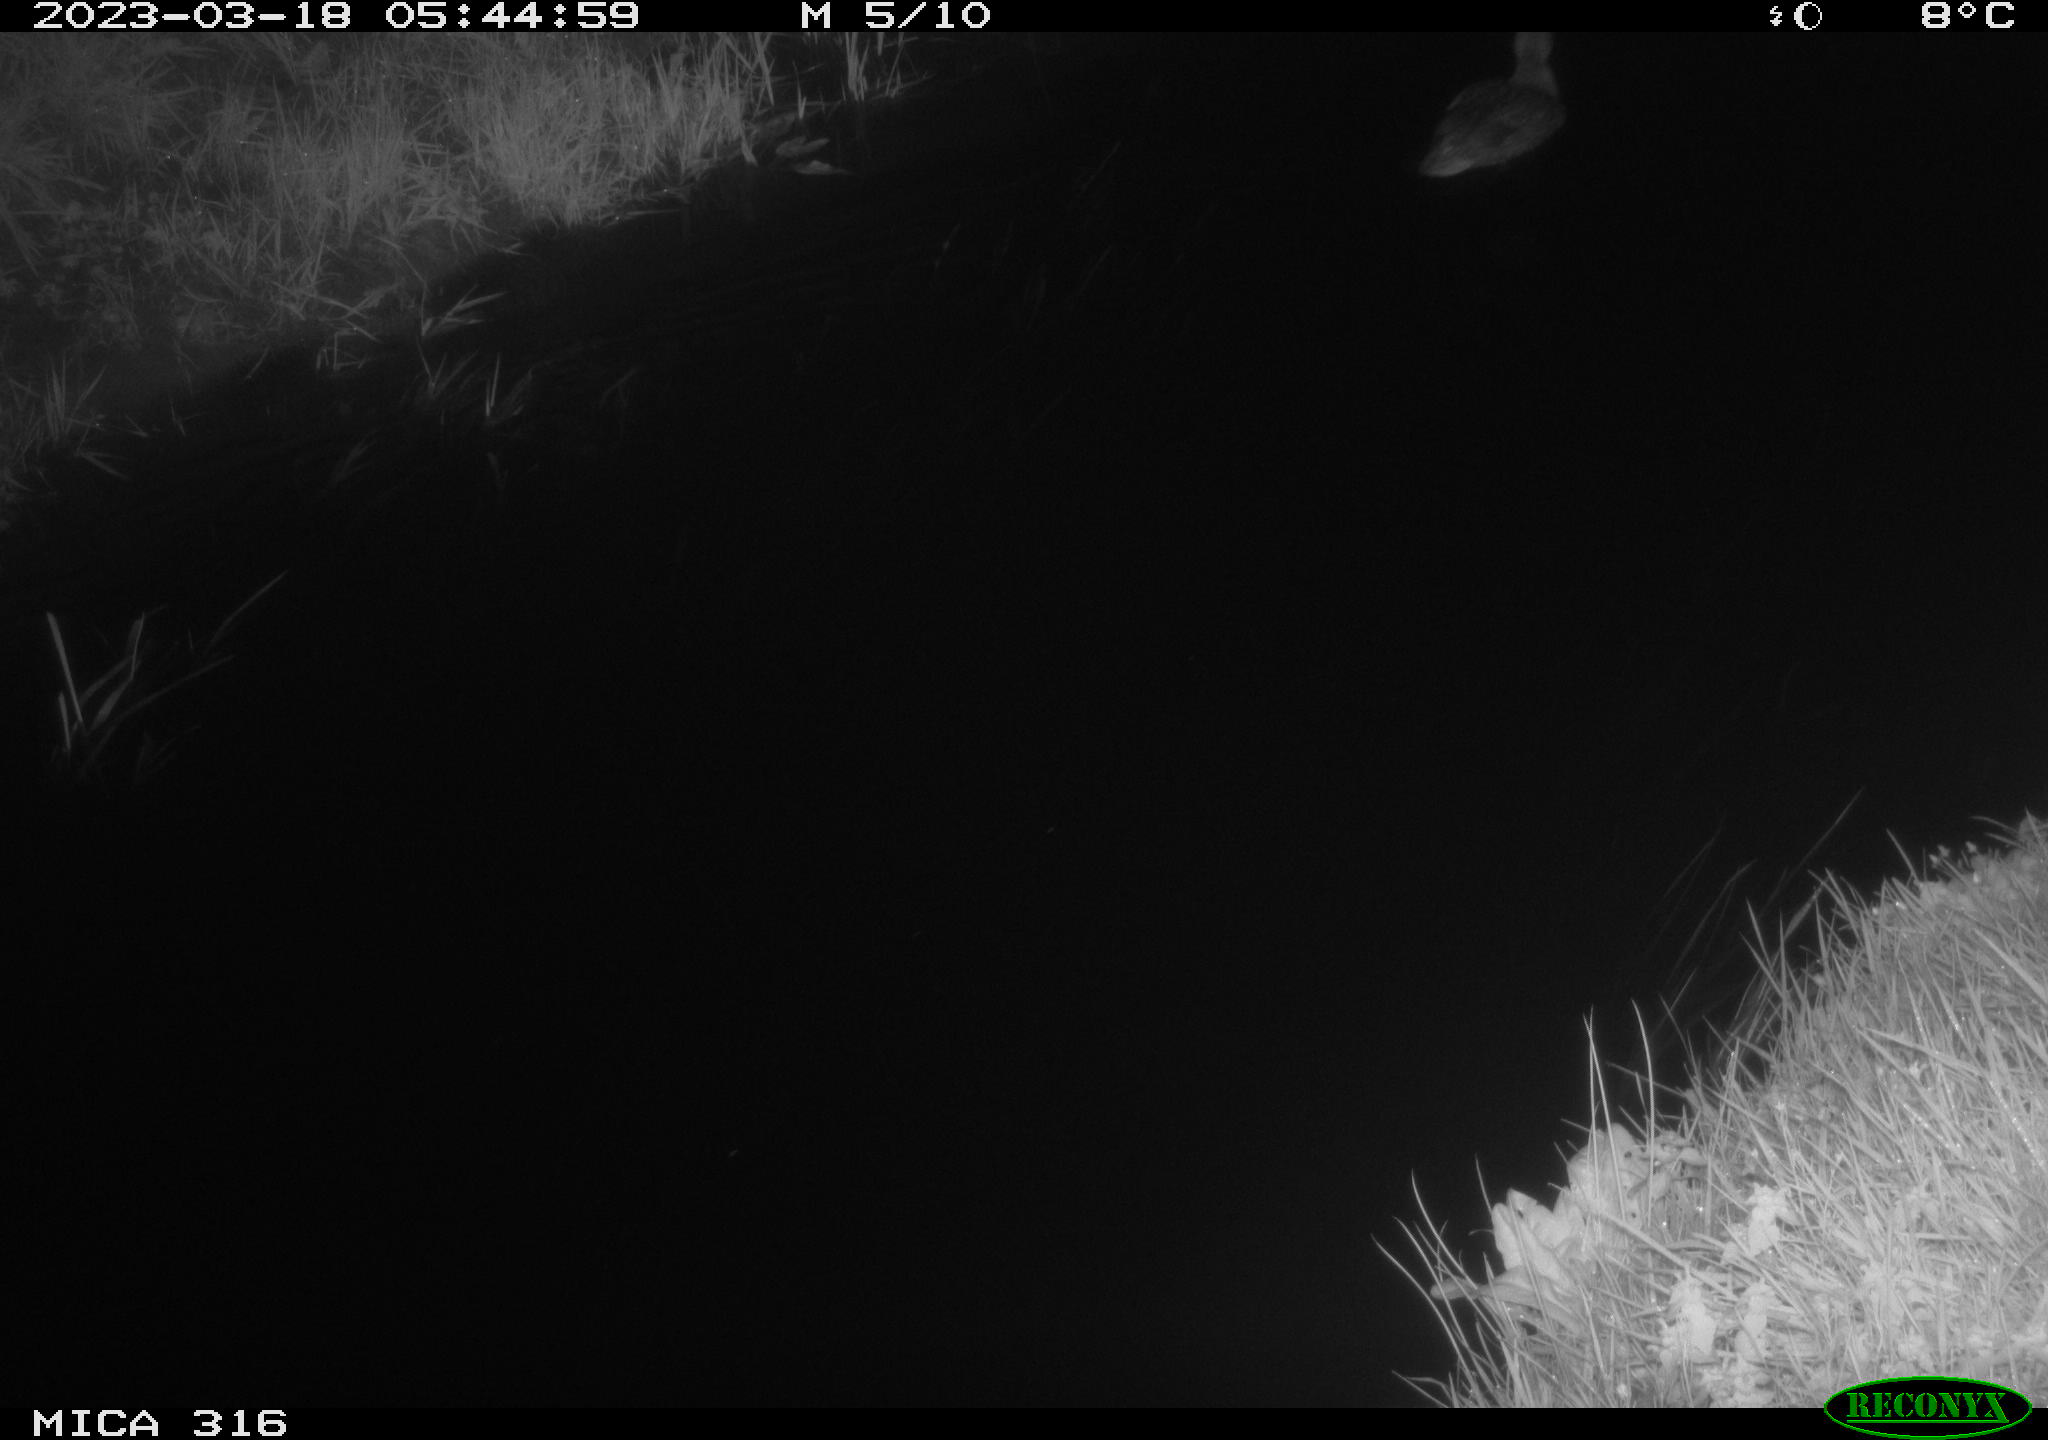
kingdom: Animalia
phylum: Chordata
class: Aves
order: Anseriformes
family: Anatidae
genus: Anas
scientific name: Anas
